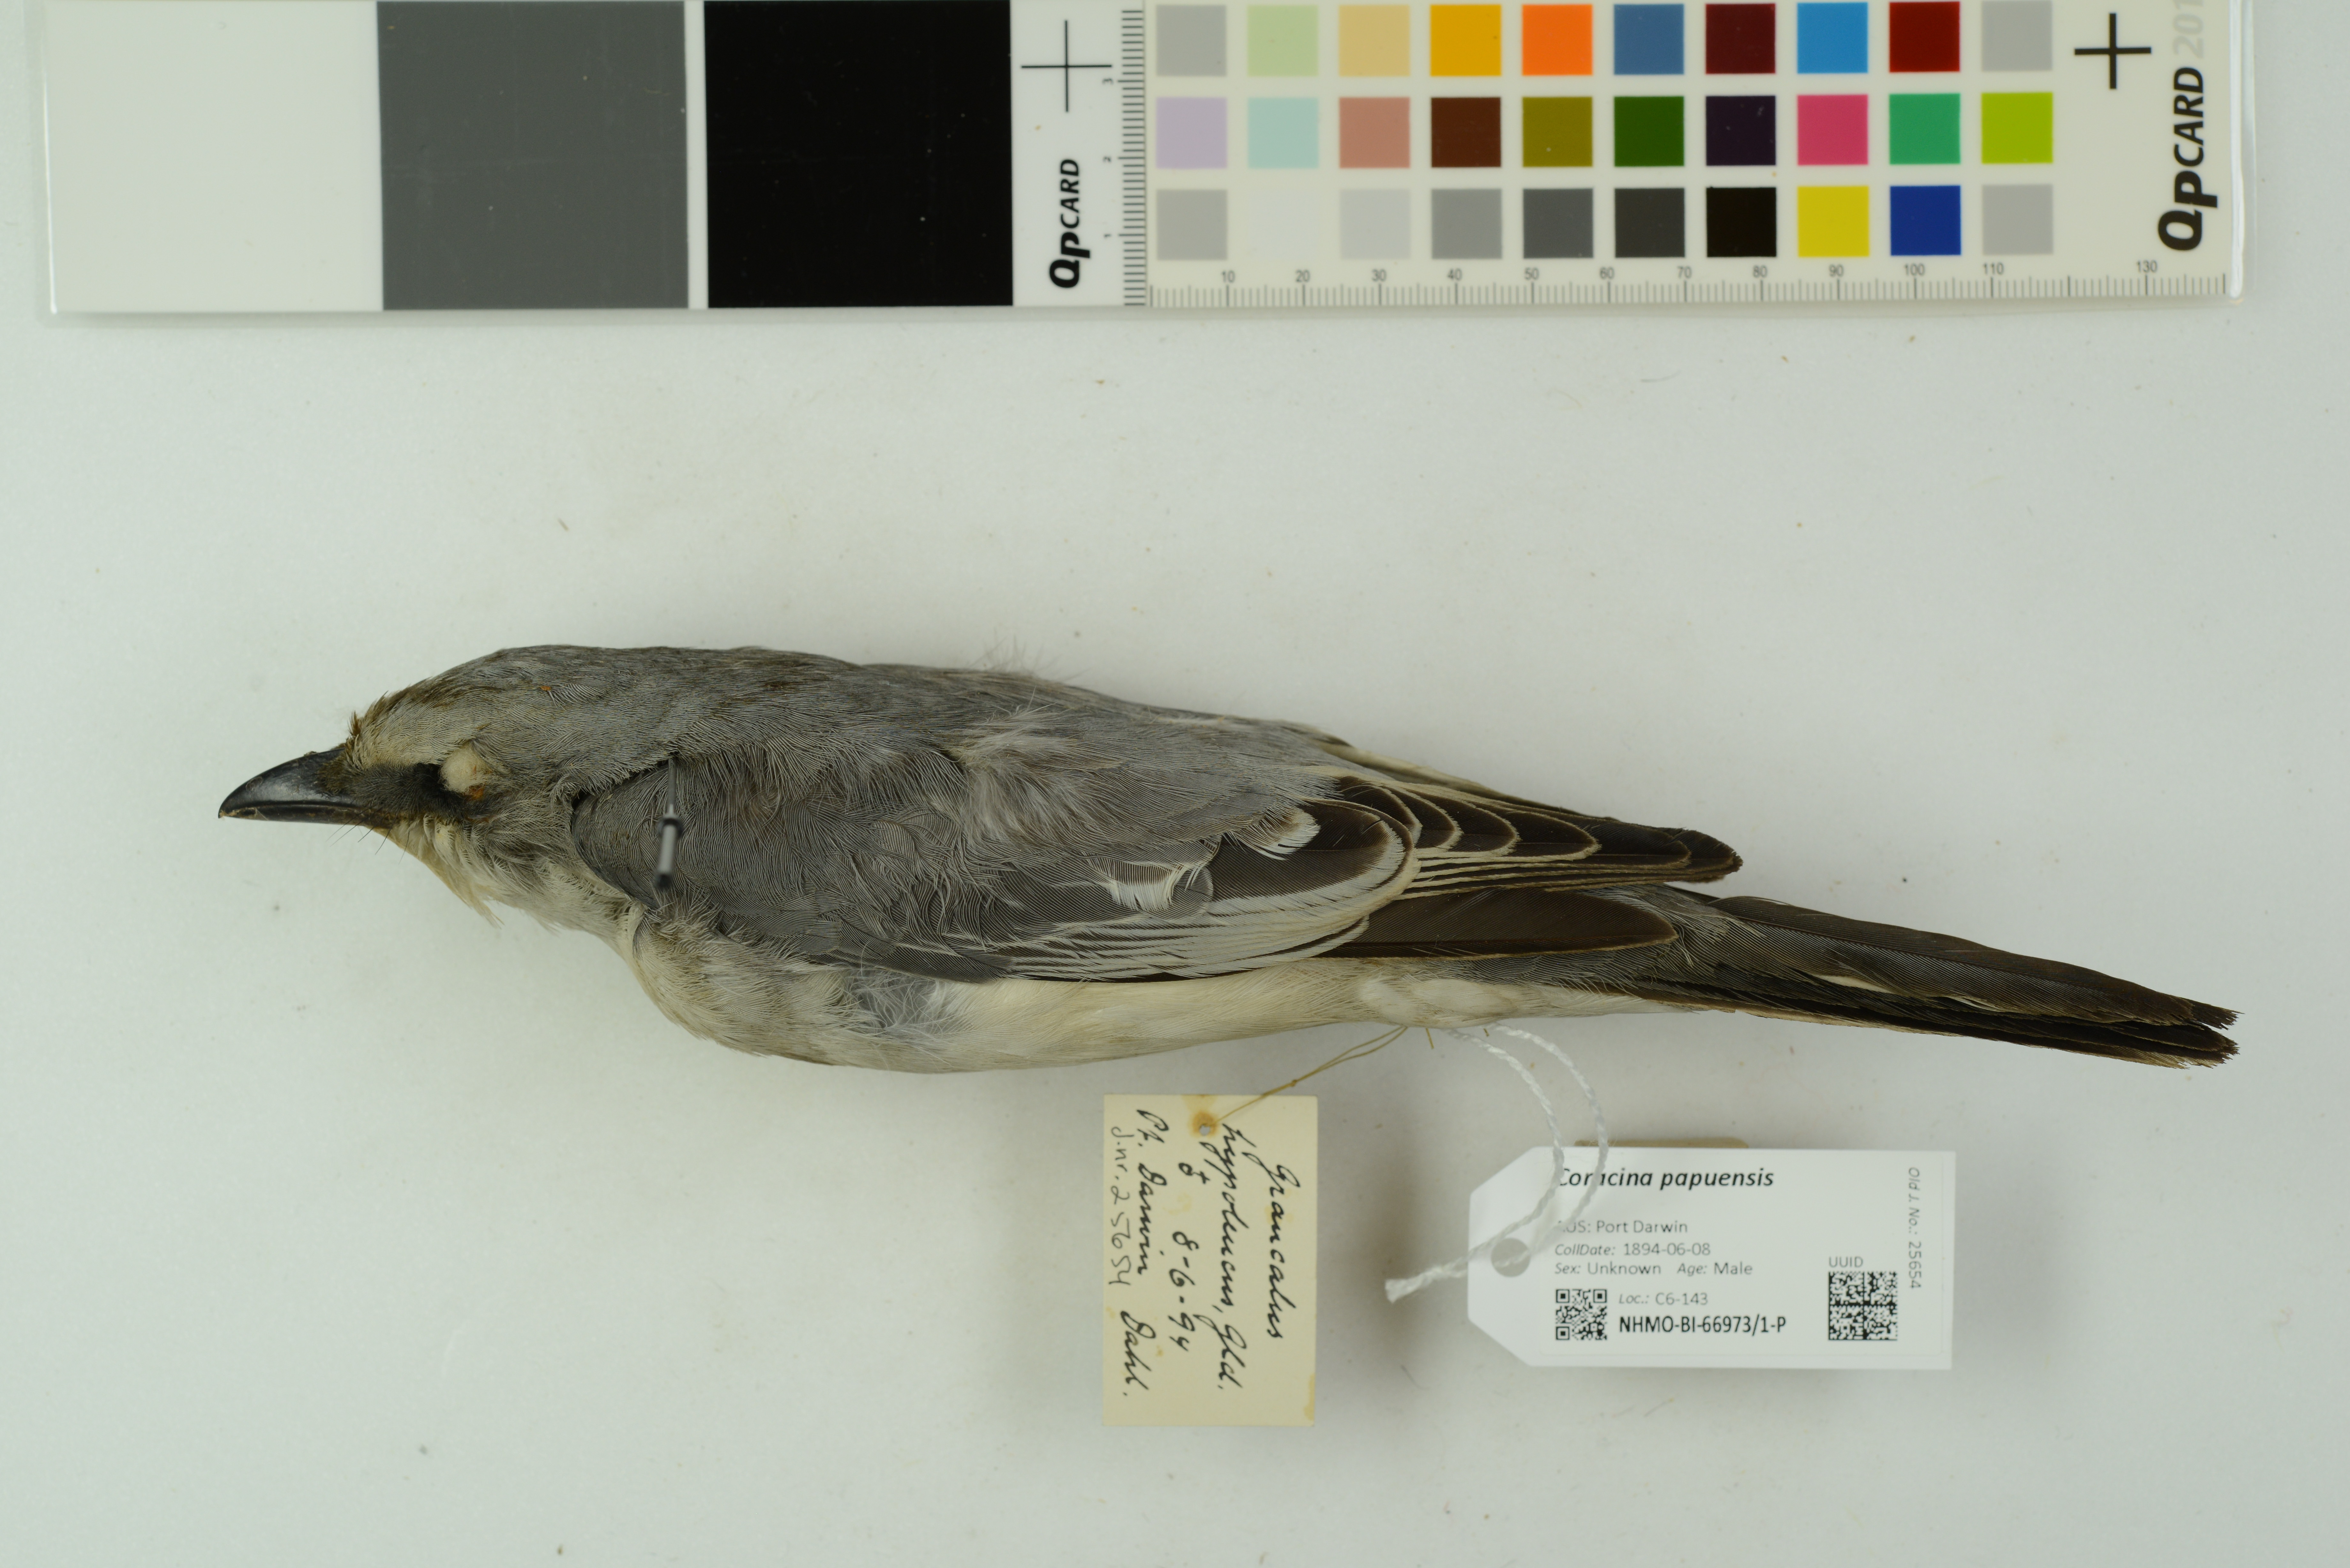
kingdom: Animalia
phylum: Chordata
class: Aves
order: Passeriformes
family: Campephagidae
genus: Coracina
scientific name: Coracina papuensis
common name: White-bellied cuckooshrike
